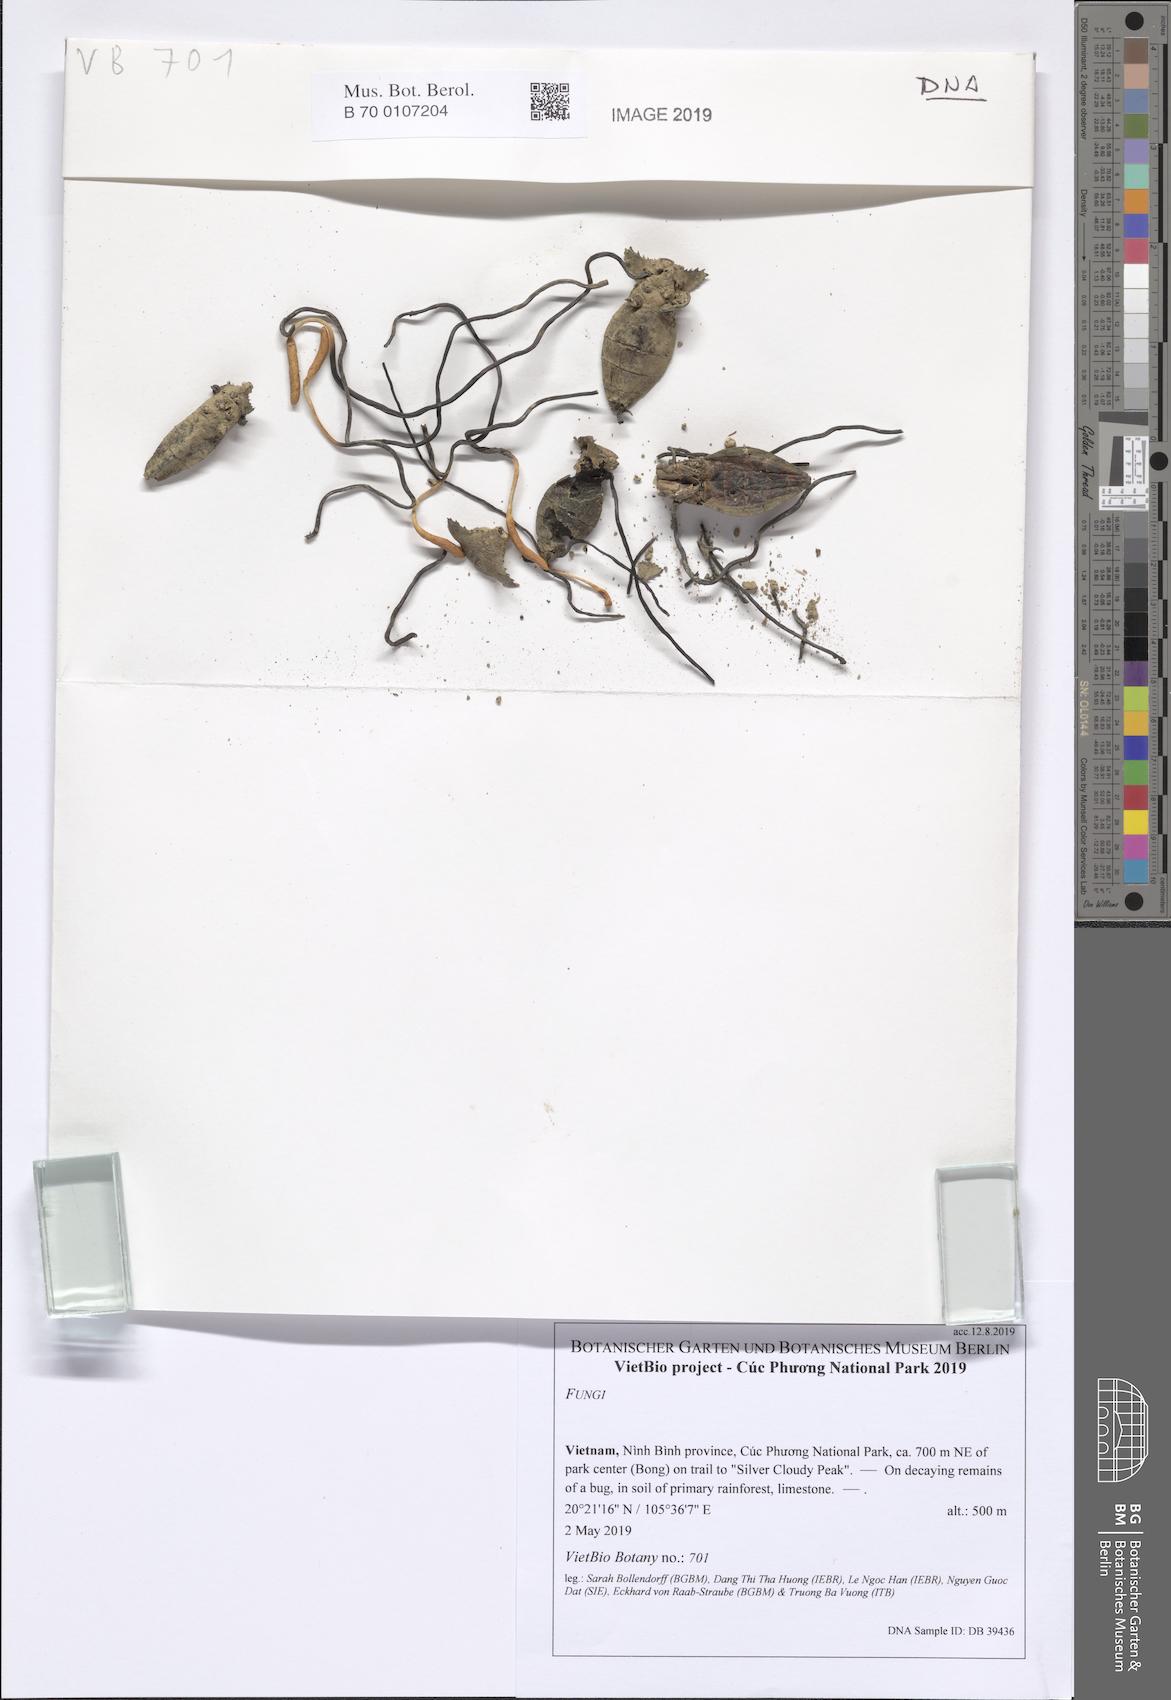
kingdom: Fungi
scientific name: Fungi
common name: Fungi
